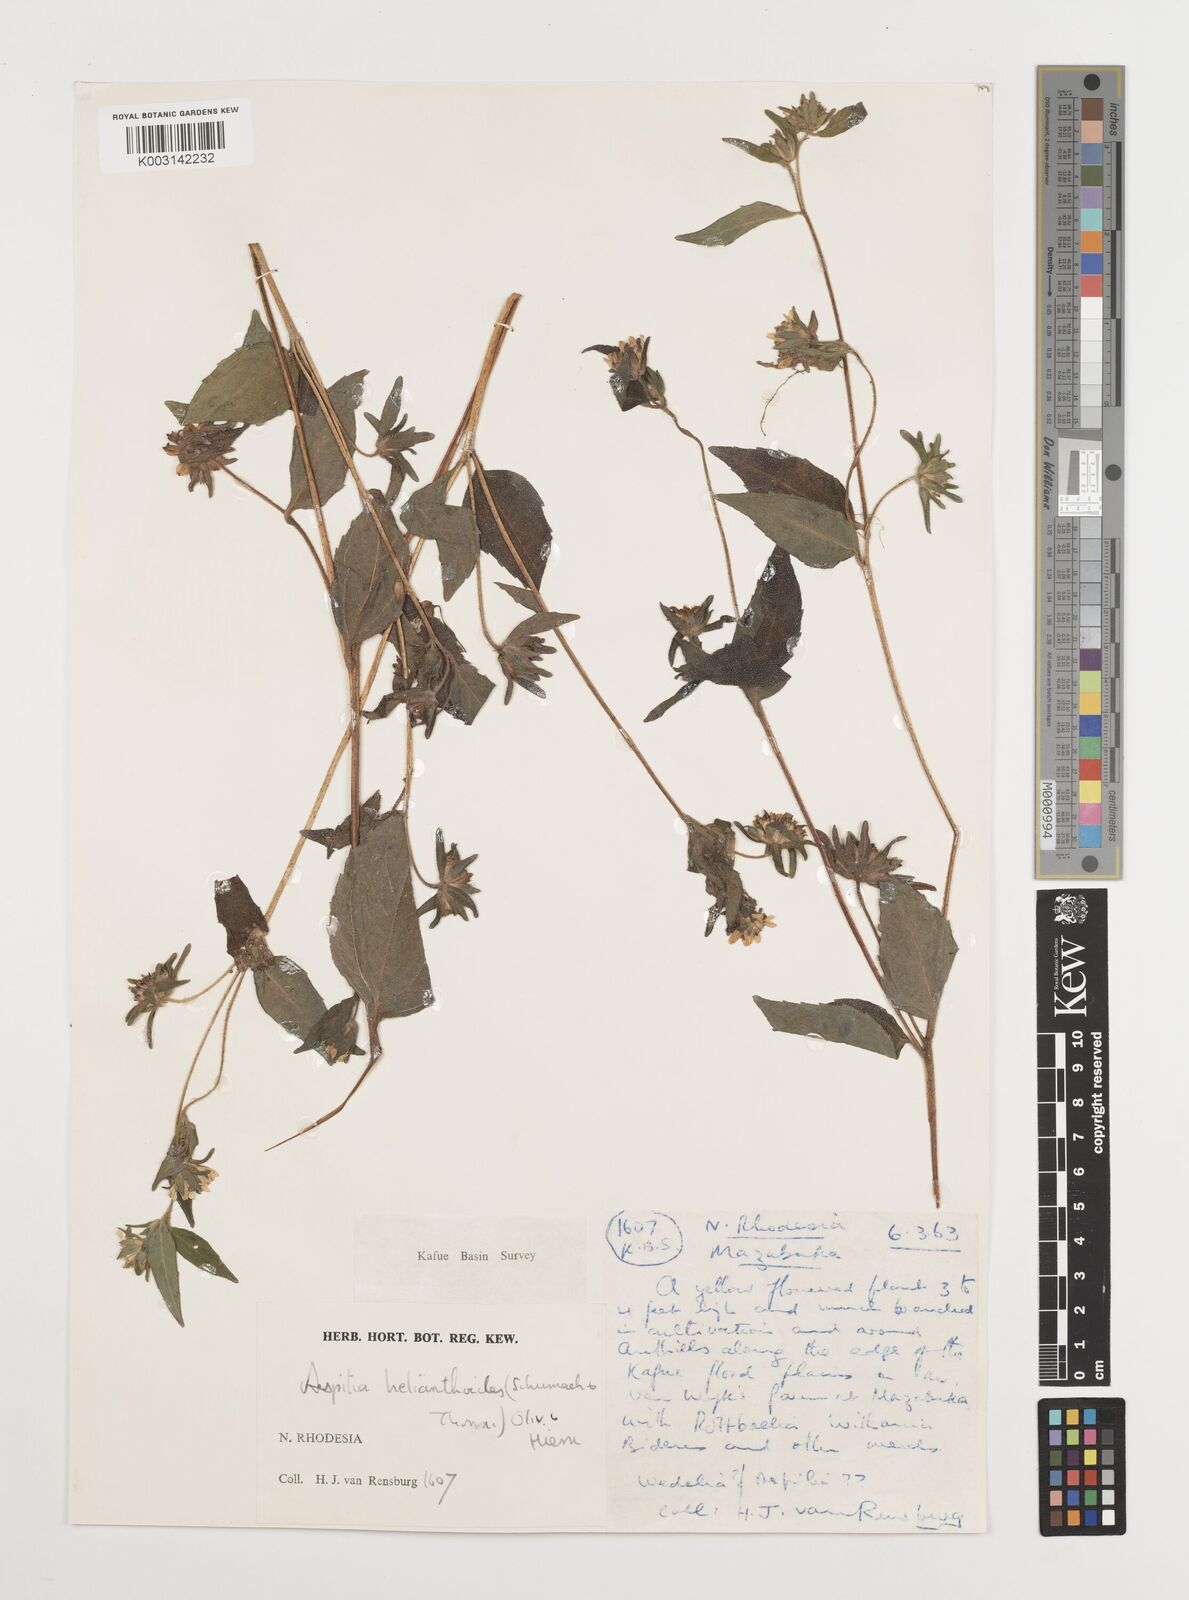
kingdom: Plantae
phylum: Tracheophyta
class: Magnoliopsida
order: Asterales
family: Asteraceae
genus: Aspilia
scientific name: Aspilia ciliata
